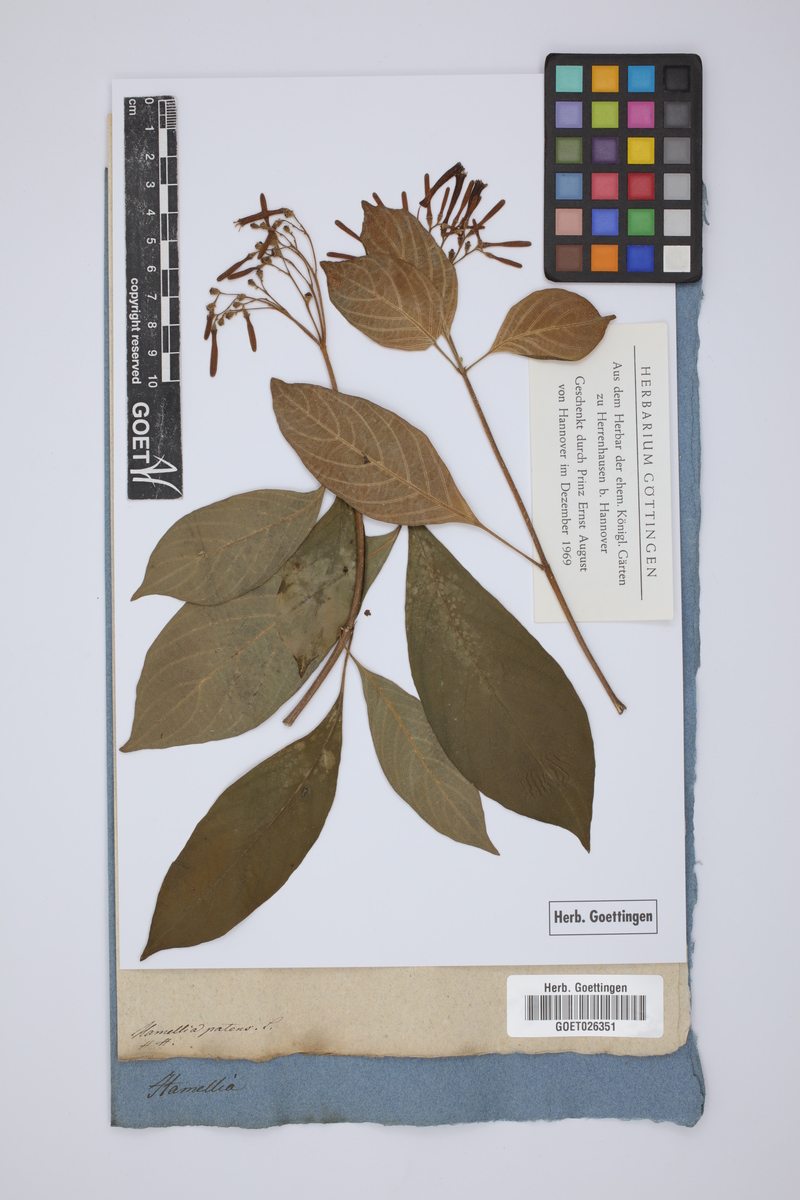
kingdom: Plantae
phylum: Tracheophyta
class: Magnoliopsida
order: Gentianales
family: Rubiaceae
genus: Hamelia
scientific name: Hamelia patens
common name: Redhead
